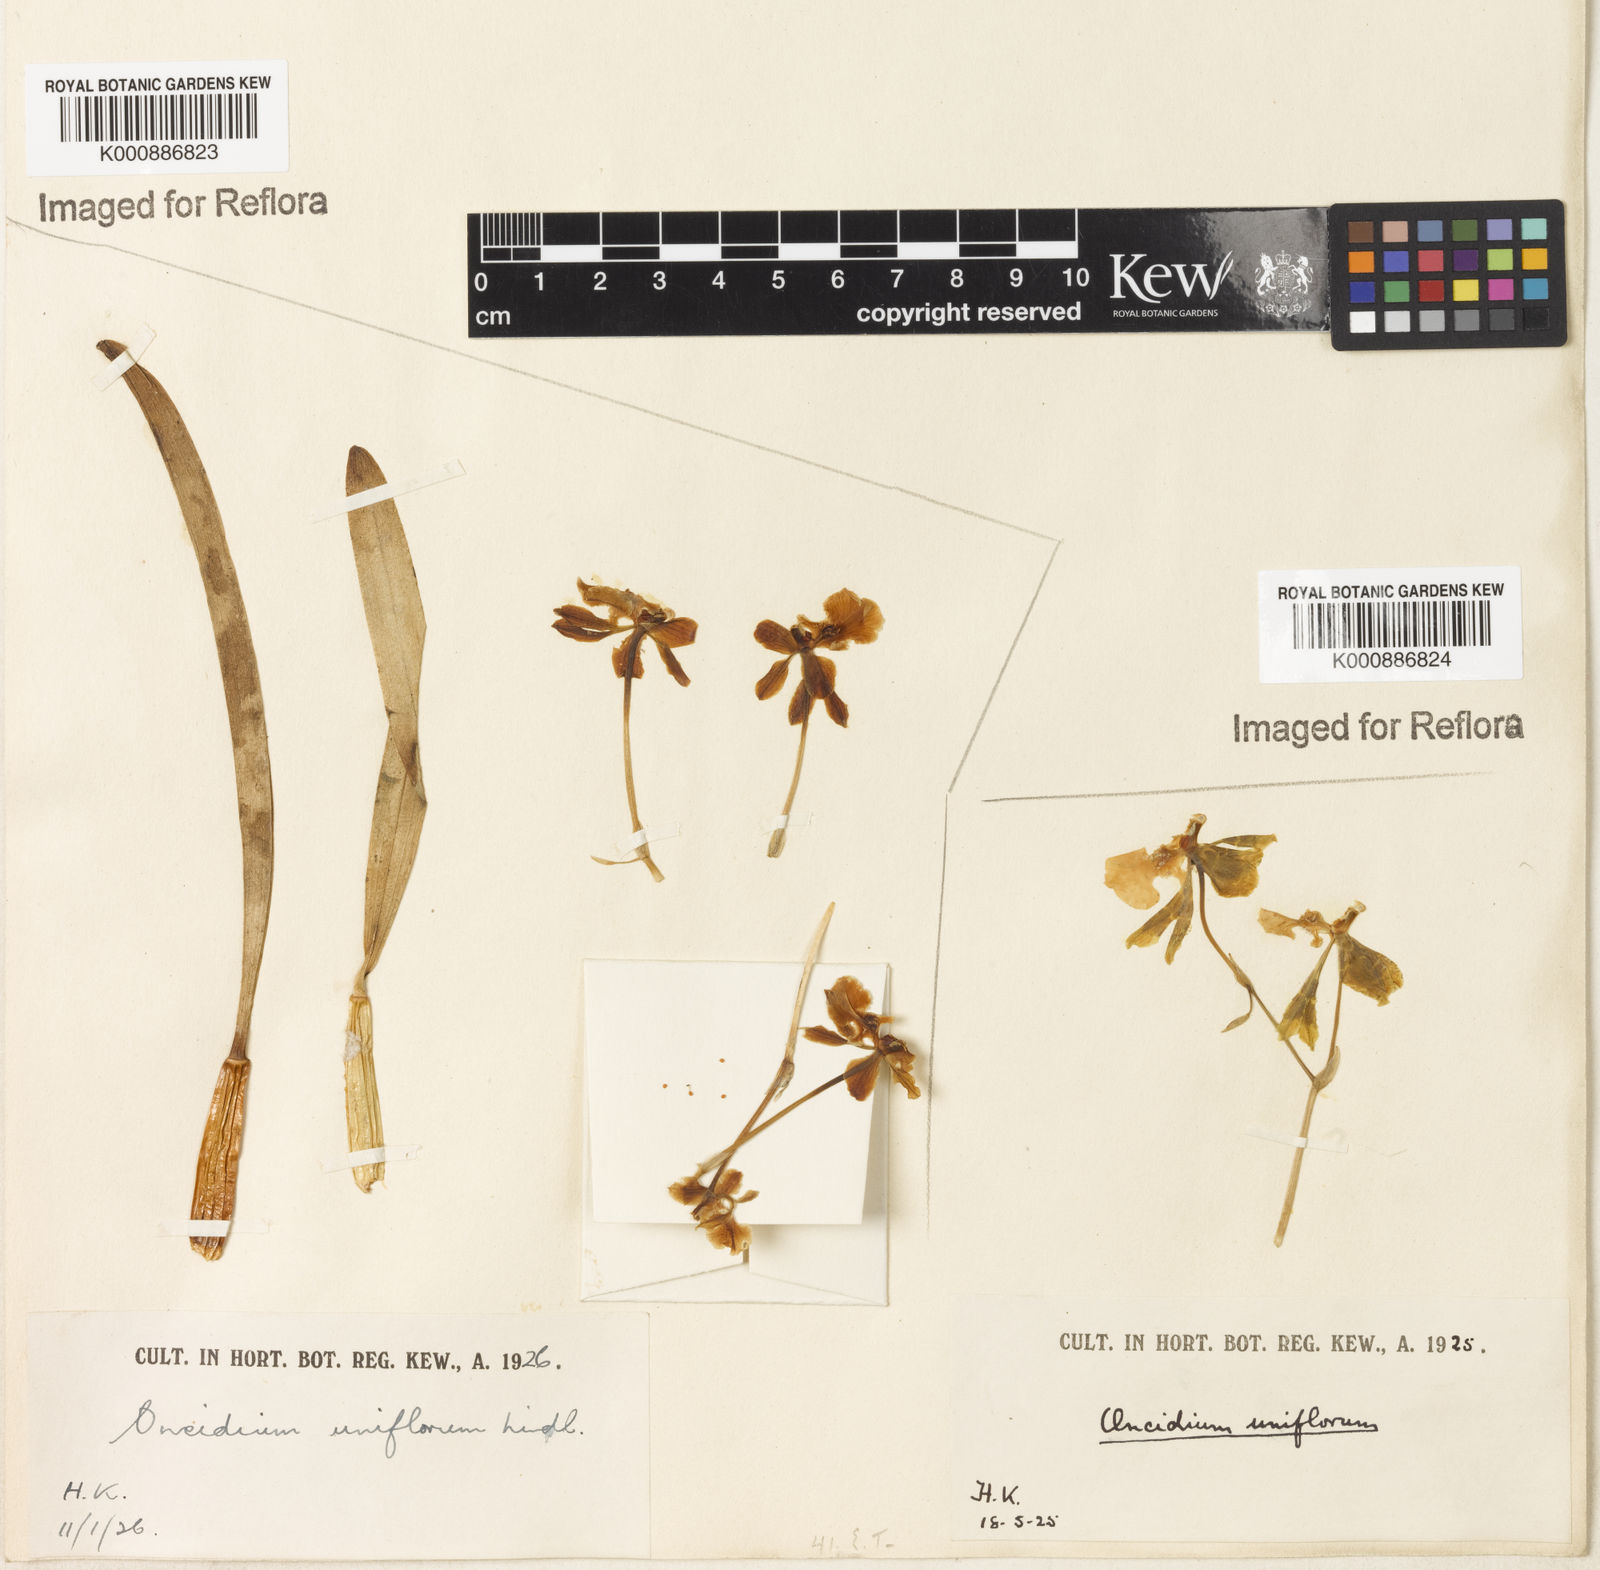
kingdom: Plantae
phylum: Tracheophyta
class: Liliopsida
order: Asparagales
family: Orchidaceae
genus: Gomesa
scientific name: Gomesa uniflora
